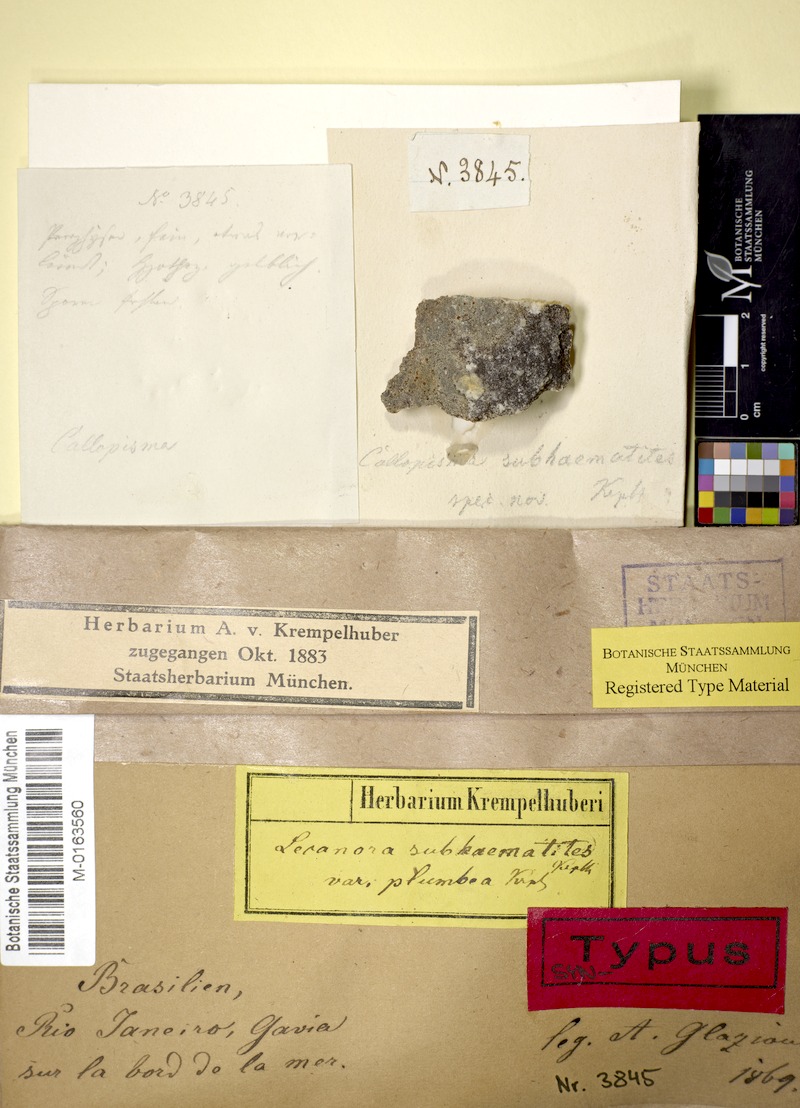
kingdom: Fungi
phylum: Ascomycota
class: Lecanoromycetes
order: Teloschistales
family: Teloschistaceae
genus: Caloplaca
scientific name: Caloplaca subaurantiaca
